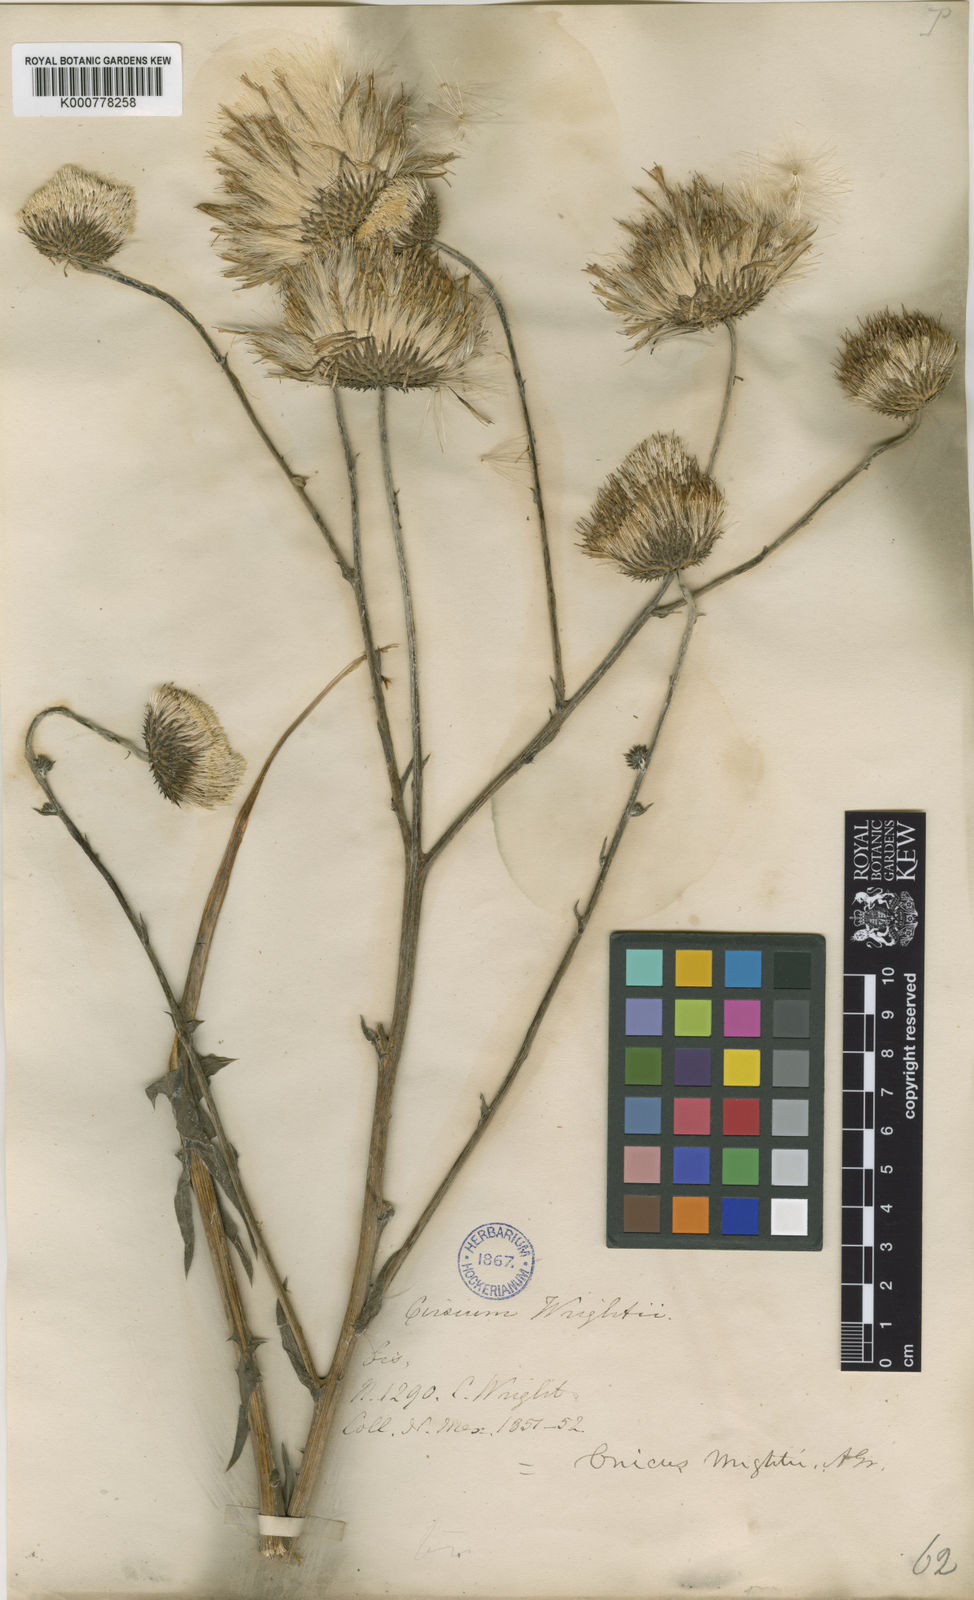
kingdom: Plantae
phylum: Tracheophyta
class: Magnoliopsida
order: Asterales
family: Asteraceae
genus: Cirsium
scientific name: Cirsium wrightii
